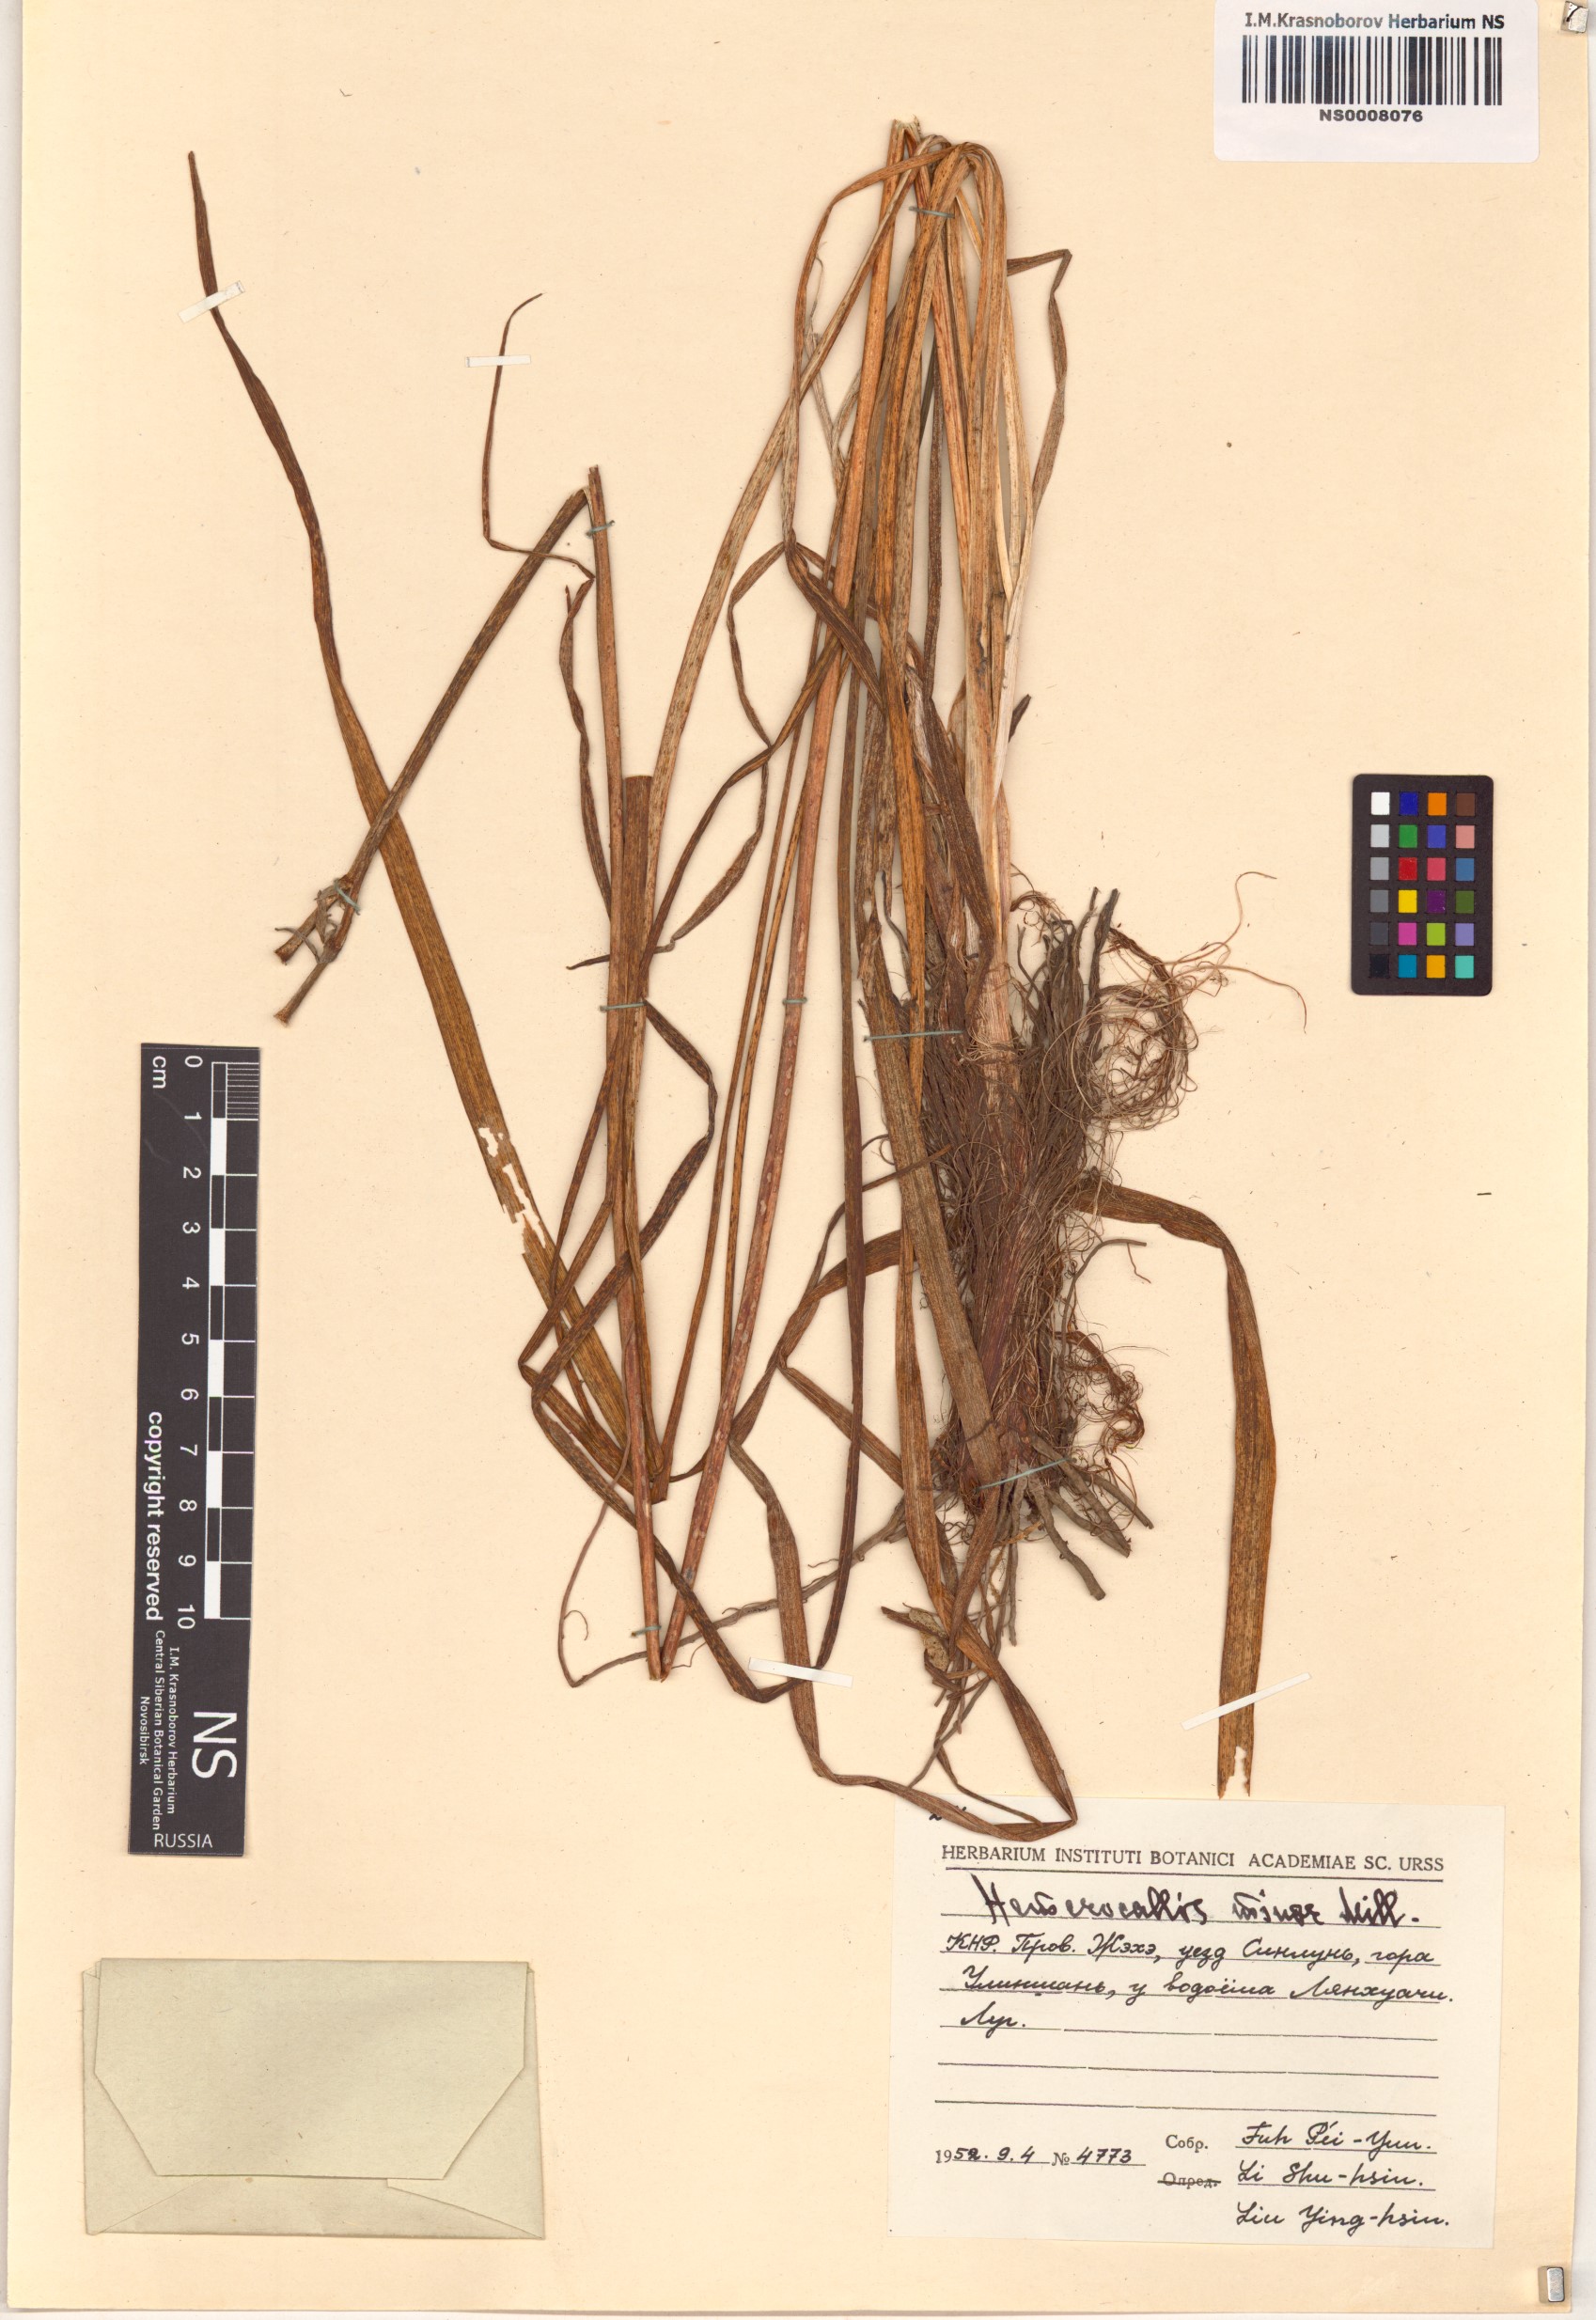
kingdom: Plantae
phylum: Tracheophyta
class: Liliopsida
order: Asparagales
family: Asphodelaceae
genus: Hemerocallis
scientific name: Hemerocallis minor
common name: Small daylily
